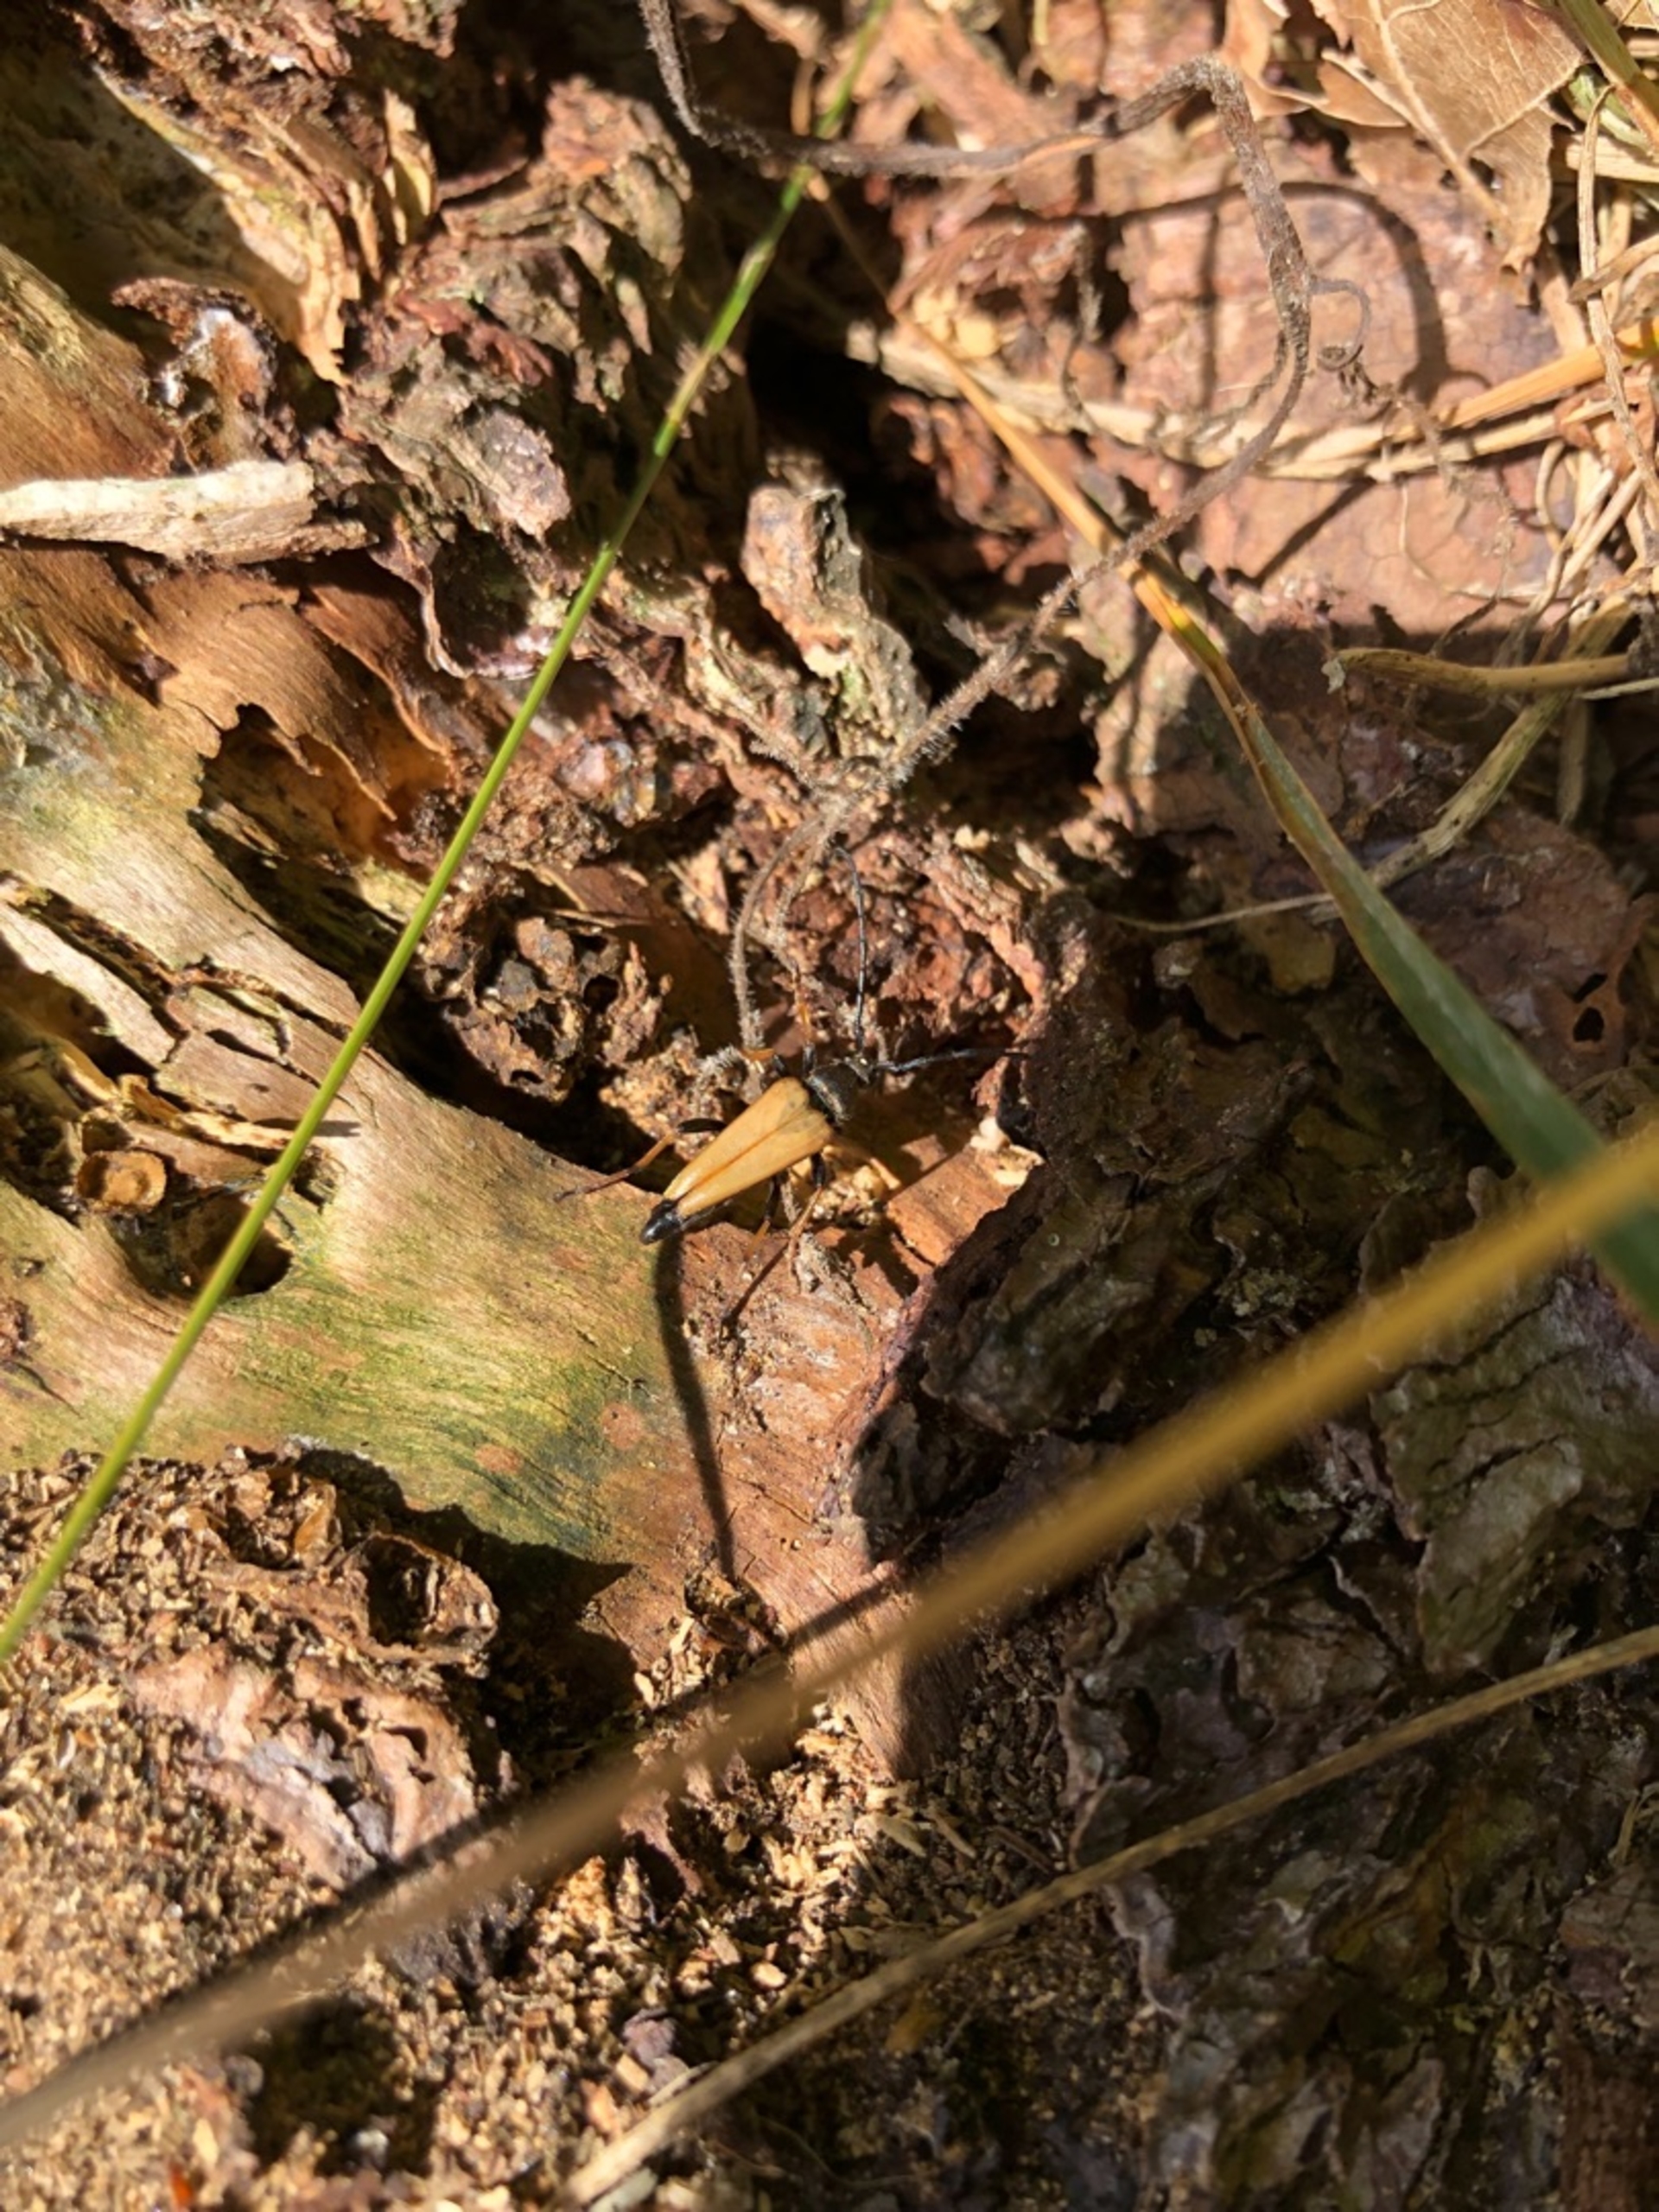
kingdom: Animalia
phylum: Arthropoda
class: Insecta
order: Coleoptera
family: Cerambycidae
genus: Stictoleptura
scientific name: Stictoleptura rubra
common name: Rød blomsterbuk
